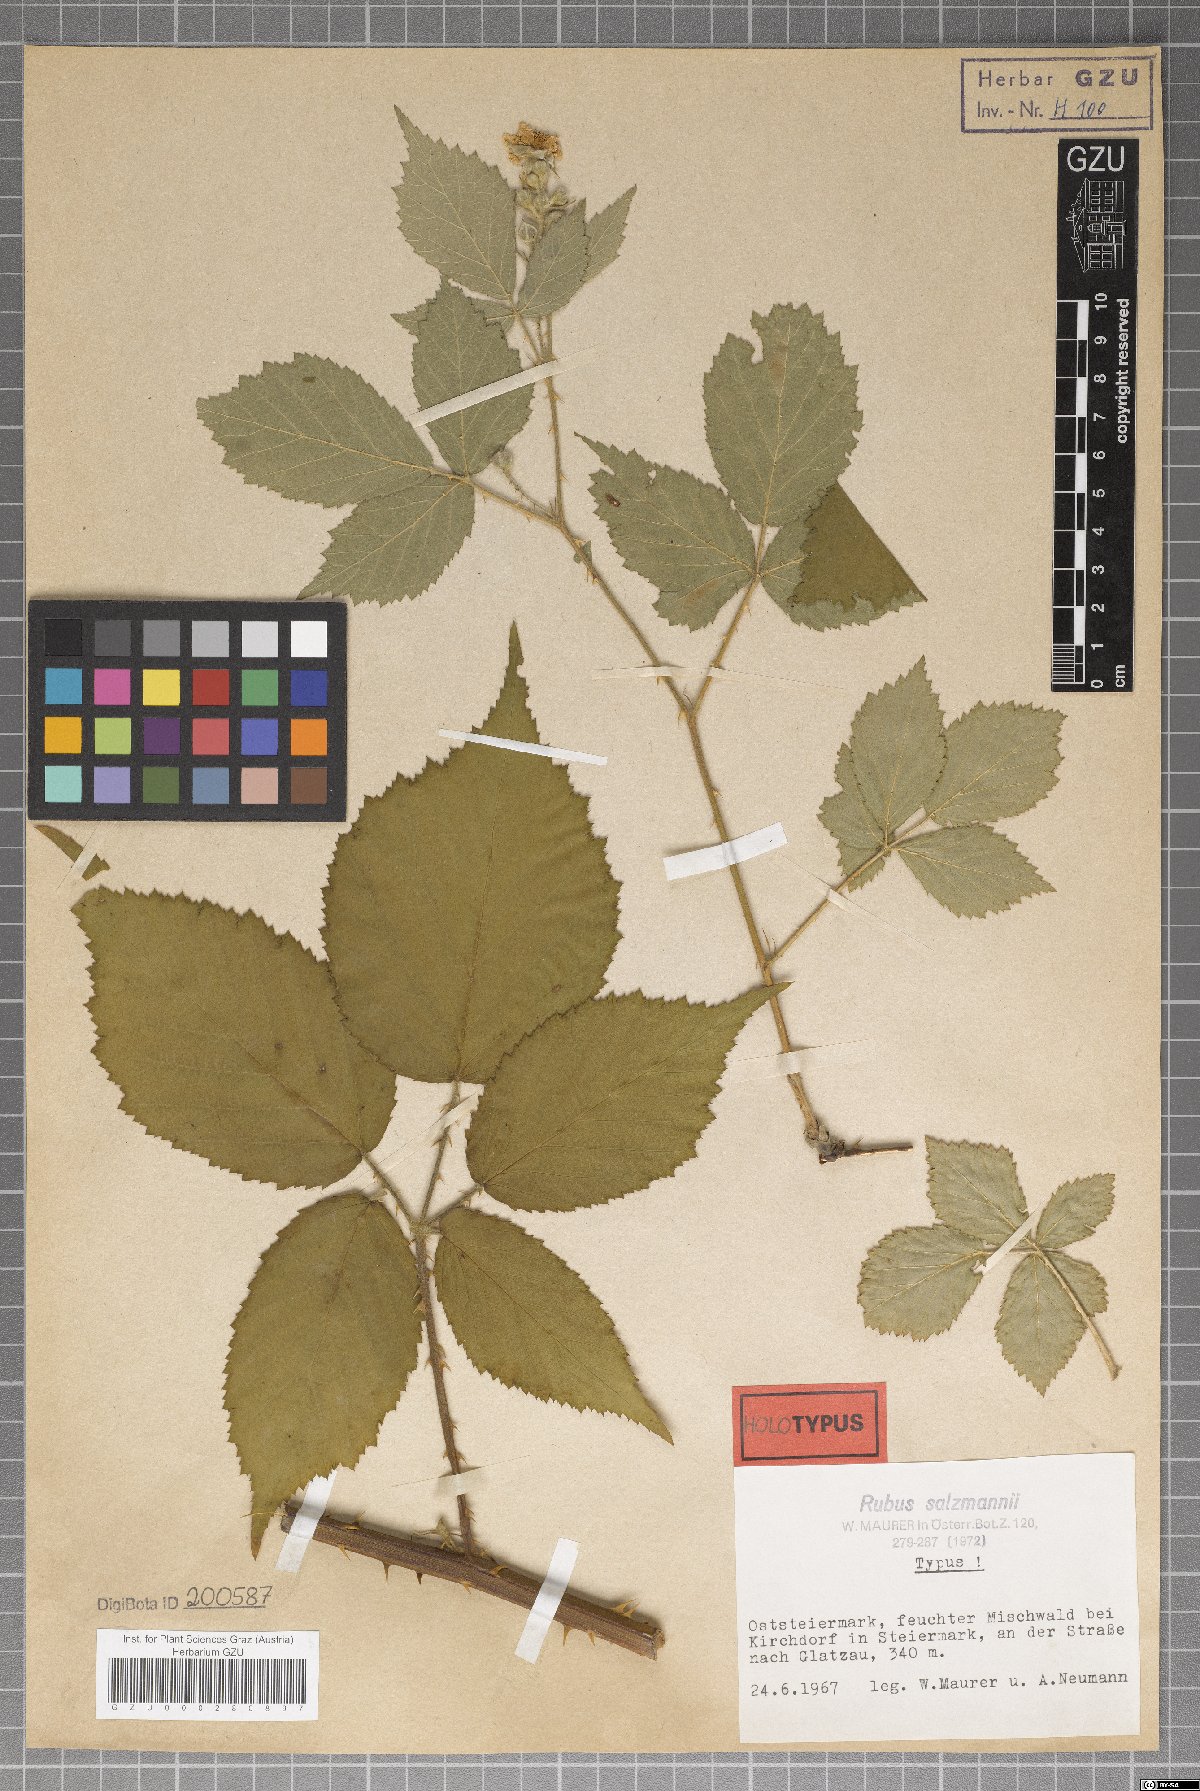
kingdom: Plantae
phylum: Tracheophyta
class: Magnoliopsida
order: Rosales
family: Rosaceae
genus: Rubus
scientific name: Rubus salzmannii
